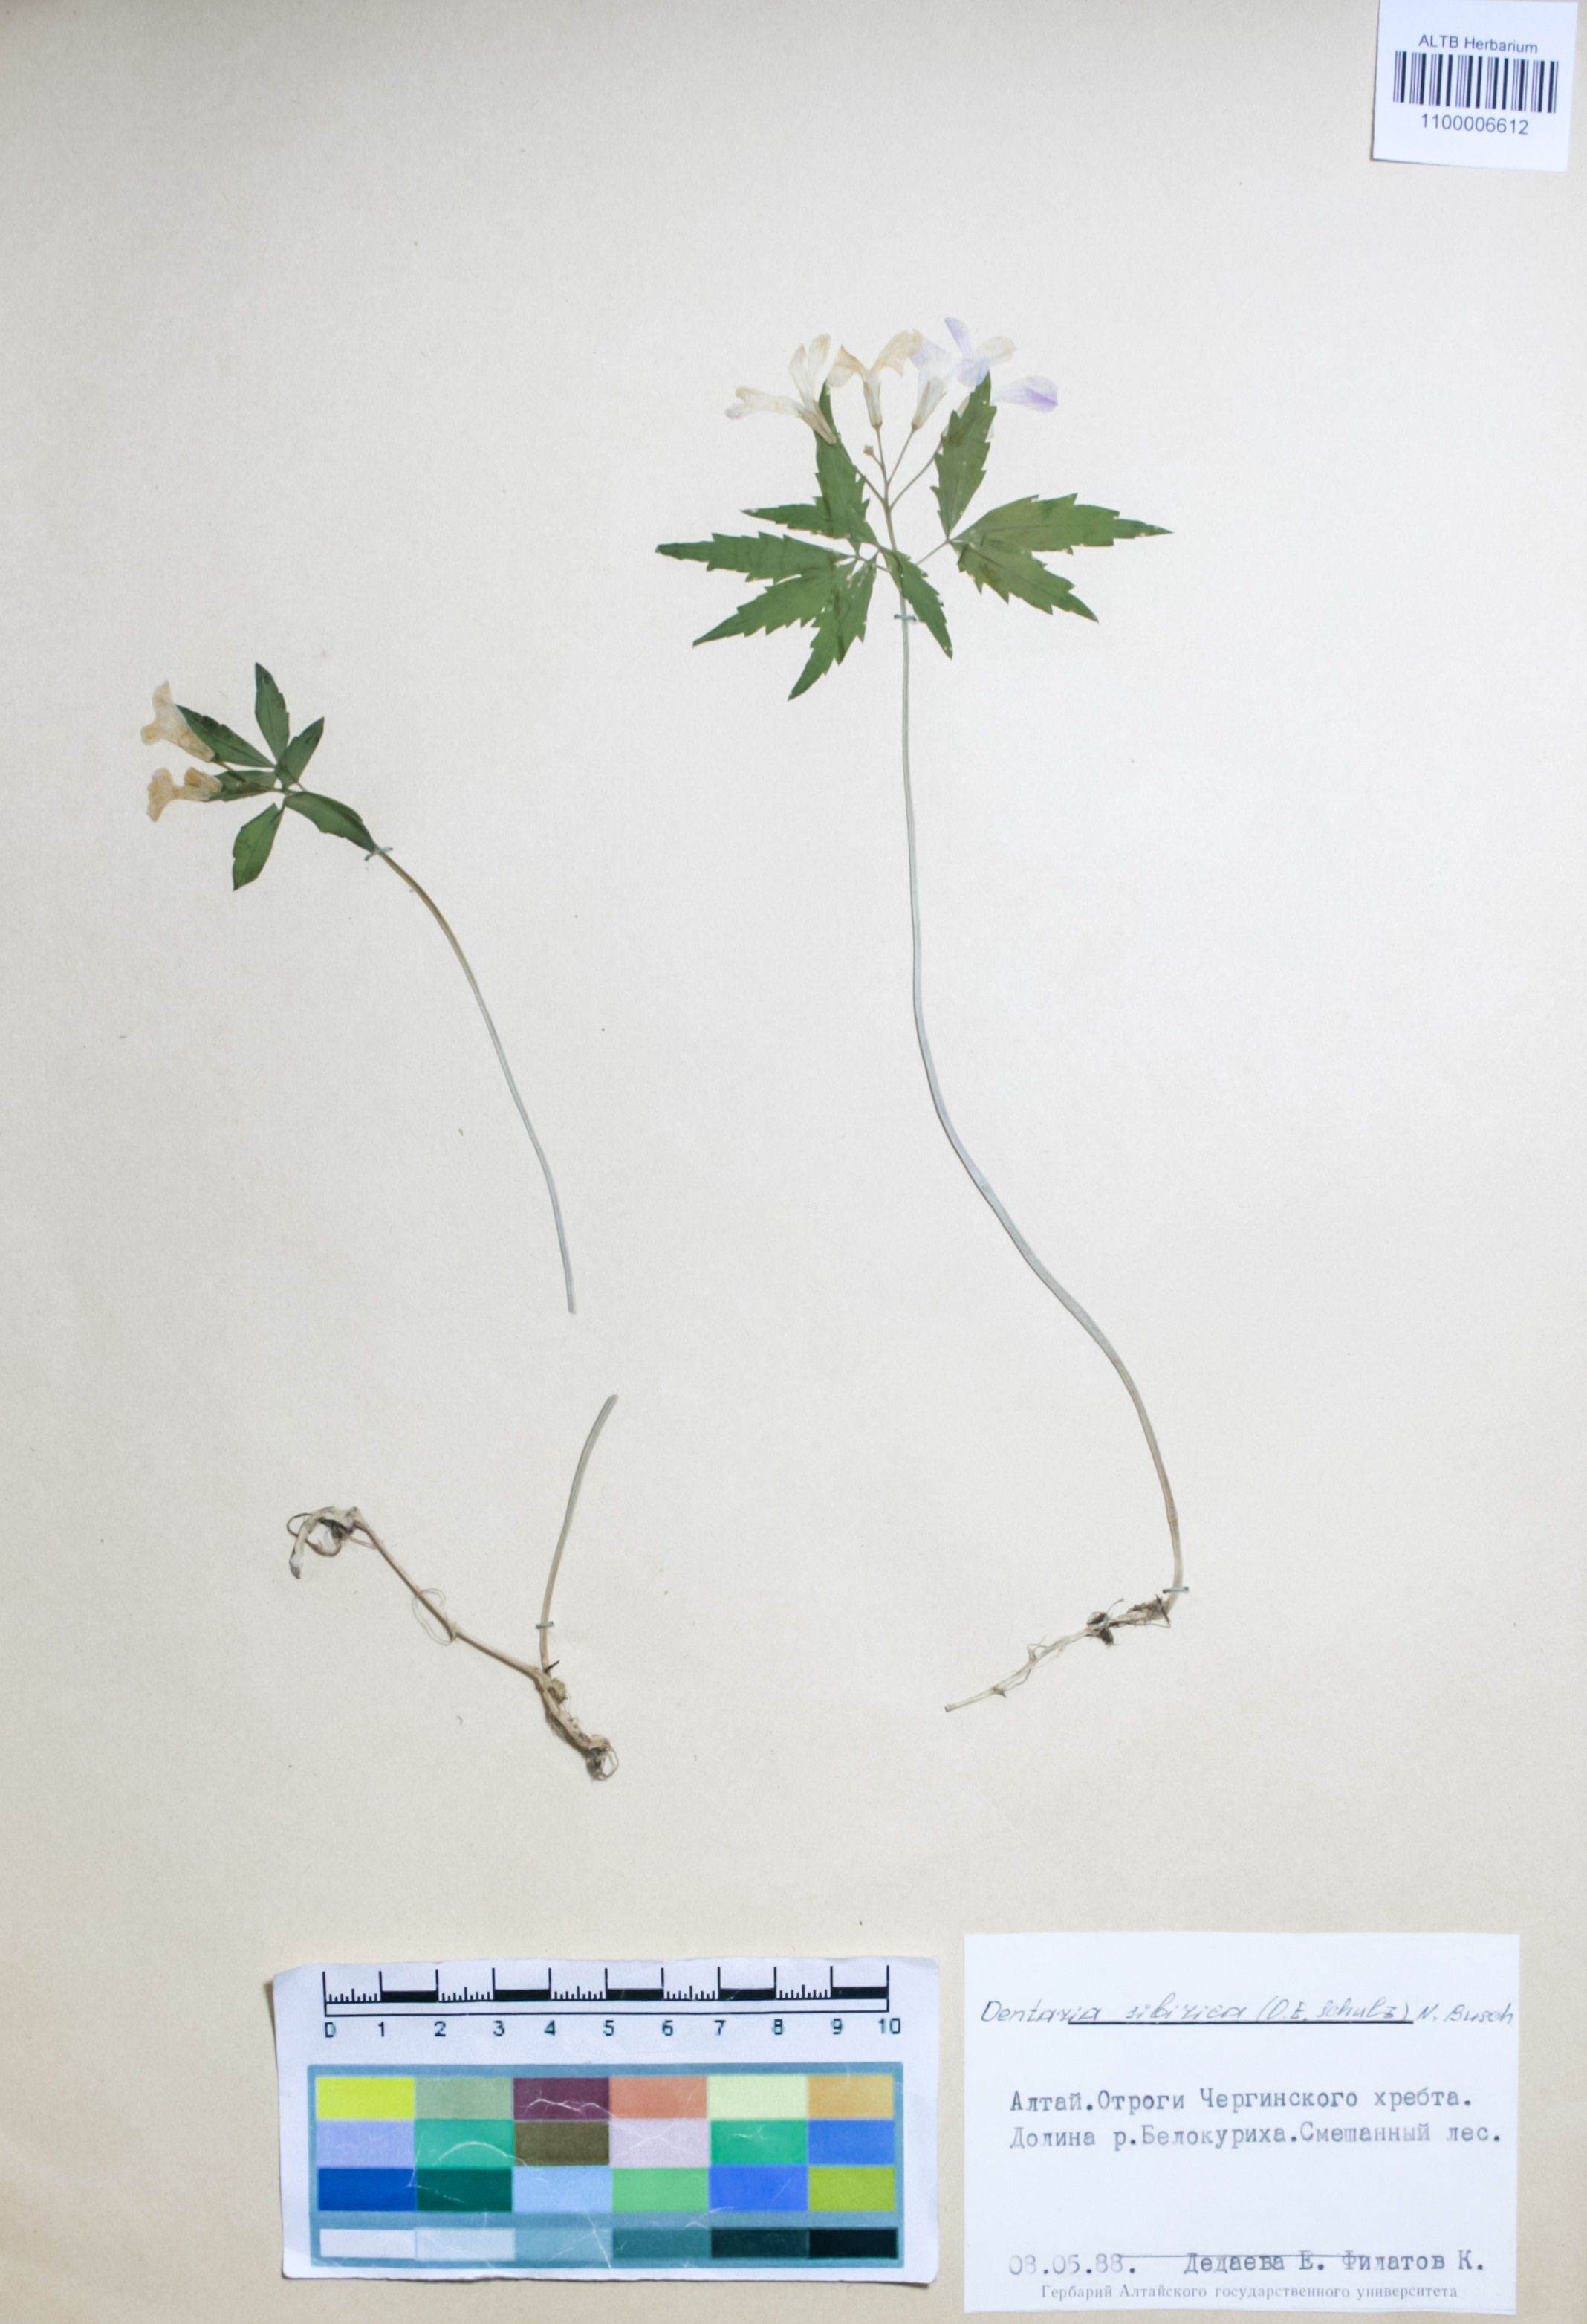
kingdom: Plantae
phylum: Tracheophyta
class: Magnoliopsida
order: Brassicales
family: Brassicaceae
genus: Cardamine
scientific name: Cardamine glanduligera
